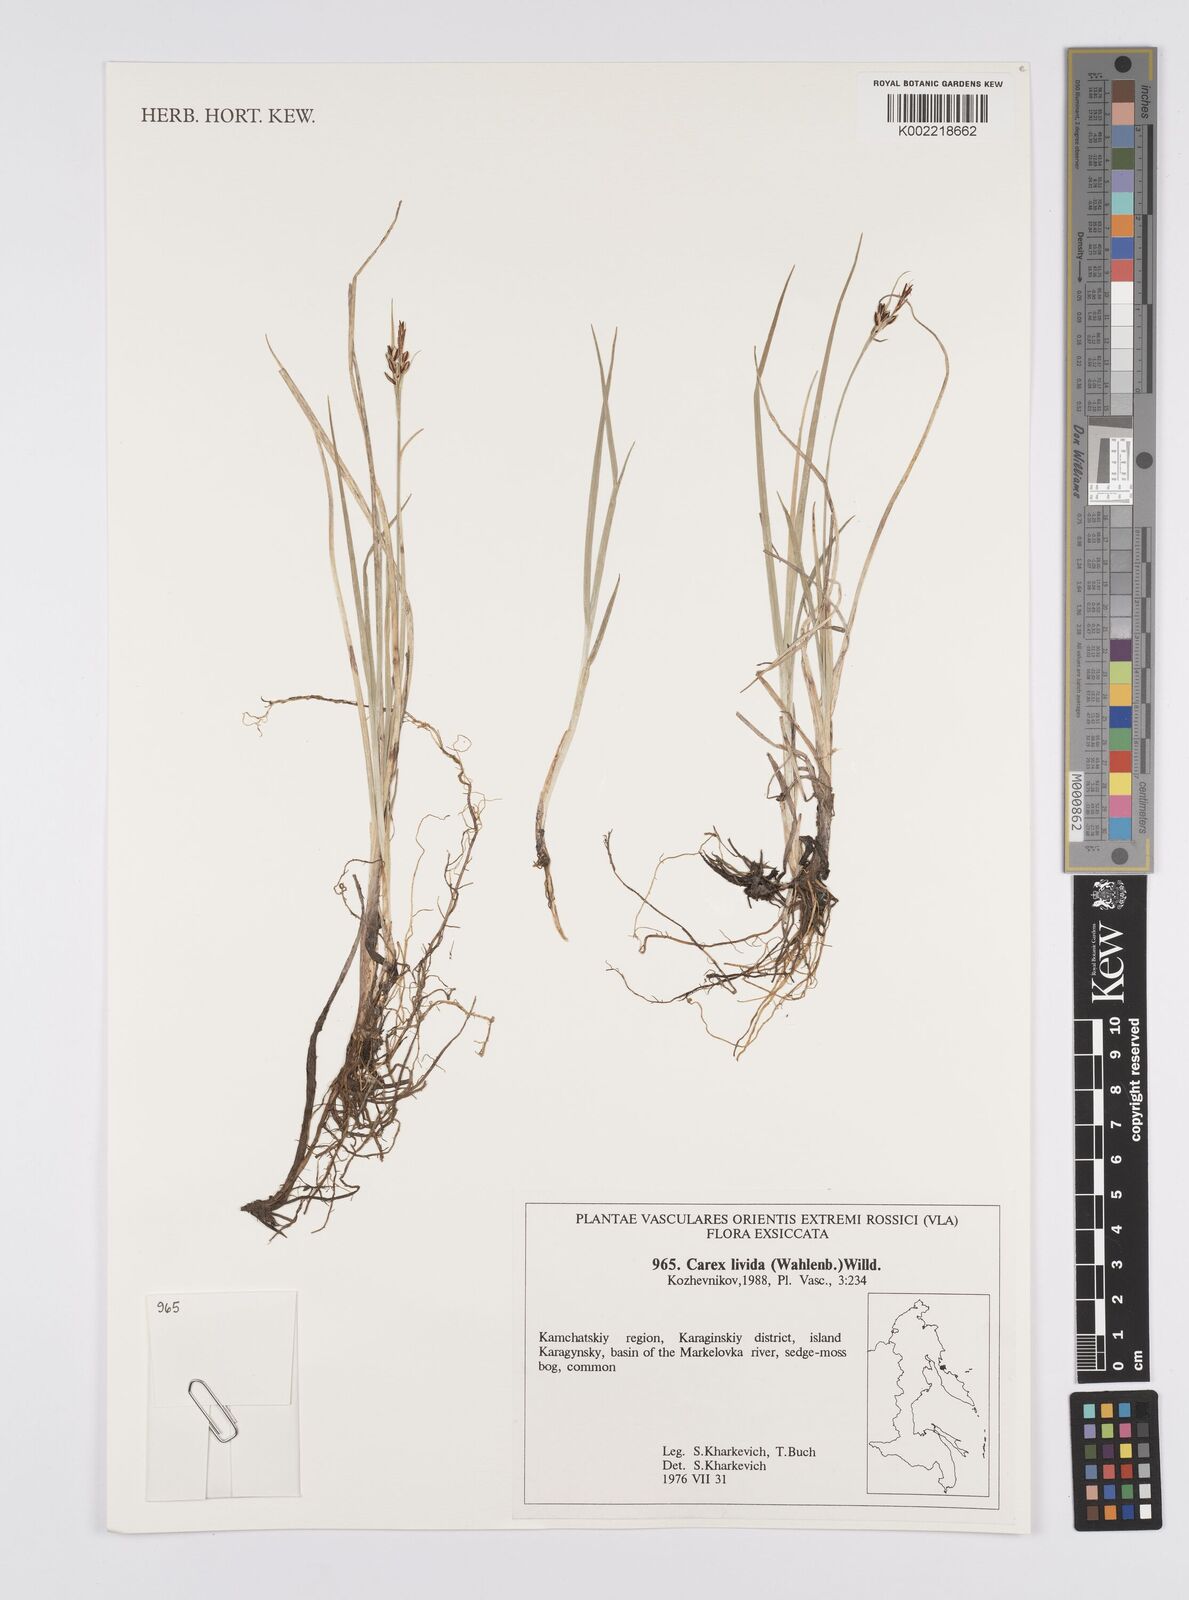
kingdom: Plantae
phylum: Tracheophyta
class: Liliopsida
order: Poales
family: Cyperaceae
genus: Carex
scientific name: Carex panicea
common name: Carnation sedge
